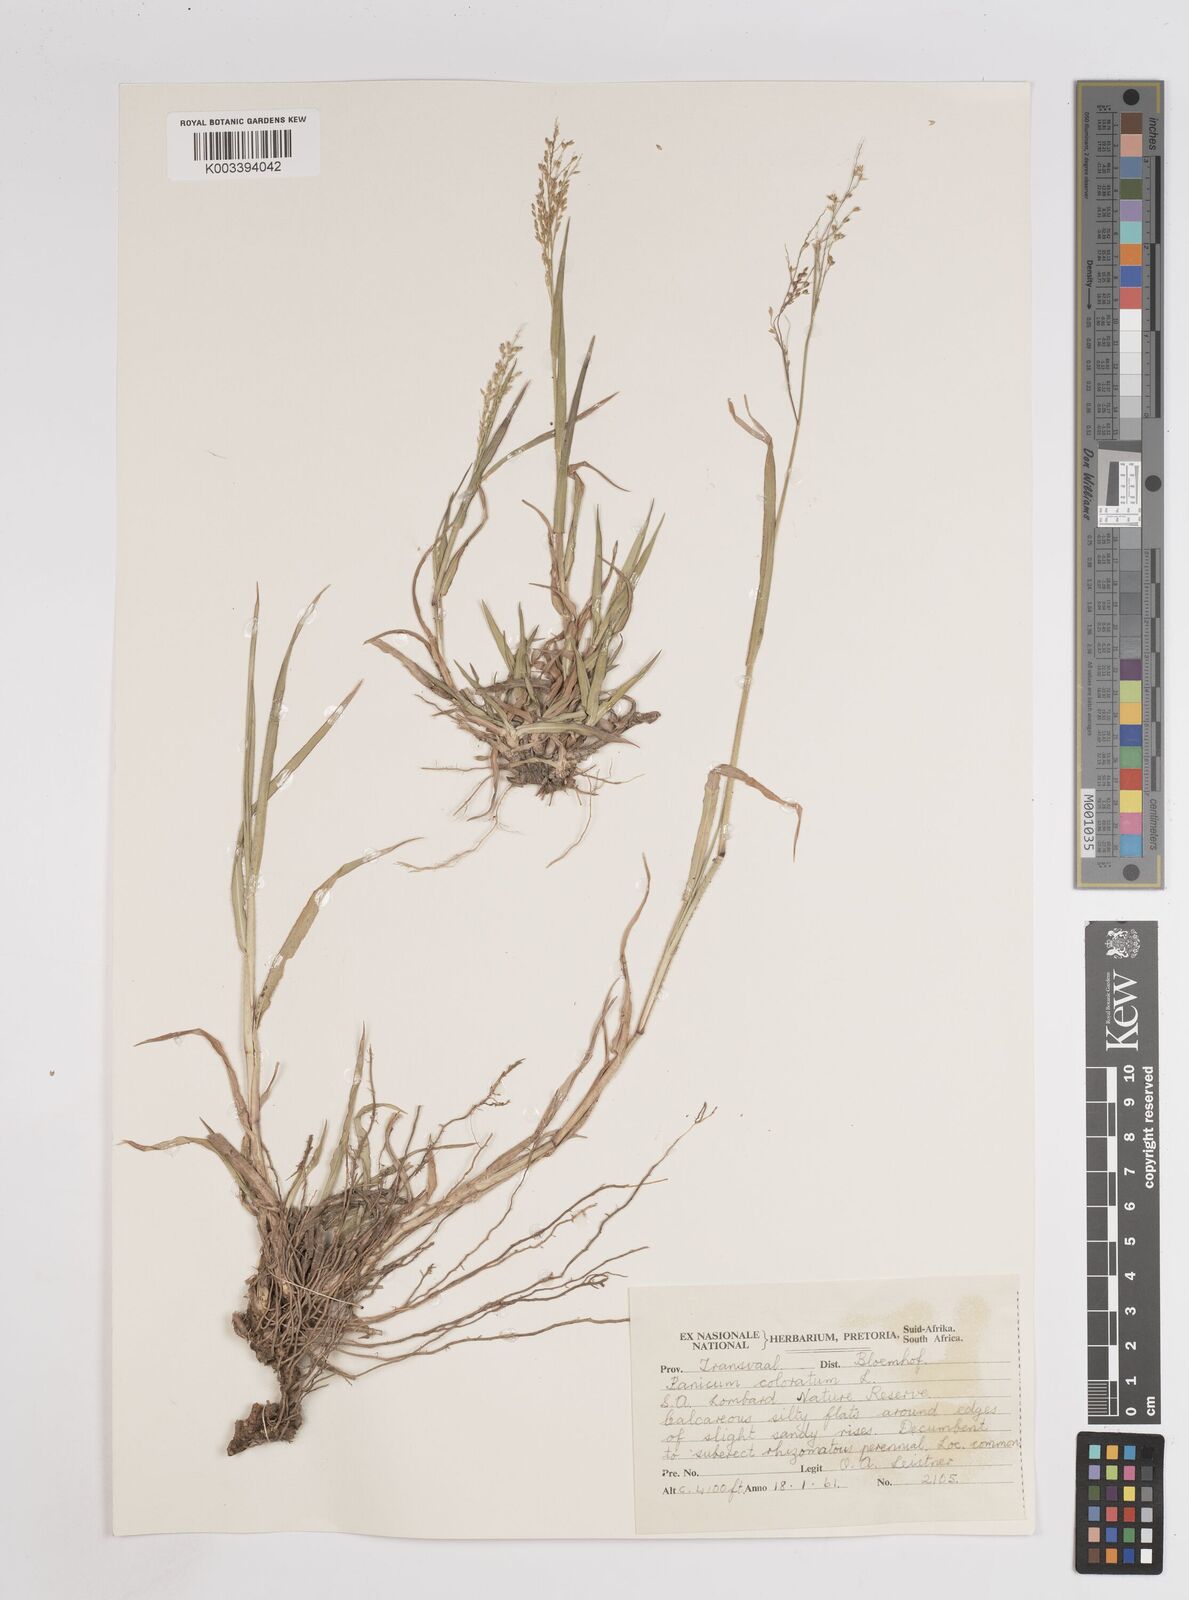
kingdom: Plantae
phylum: Tracheophyta
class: Liliopsida
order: Poales
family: Poaceae
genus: Panicum
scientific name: Panicum coloratum
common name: Kleingrass
